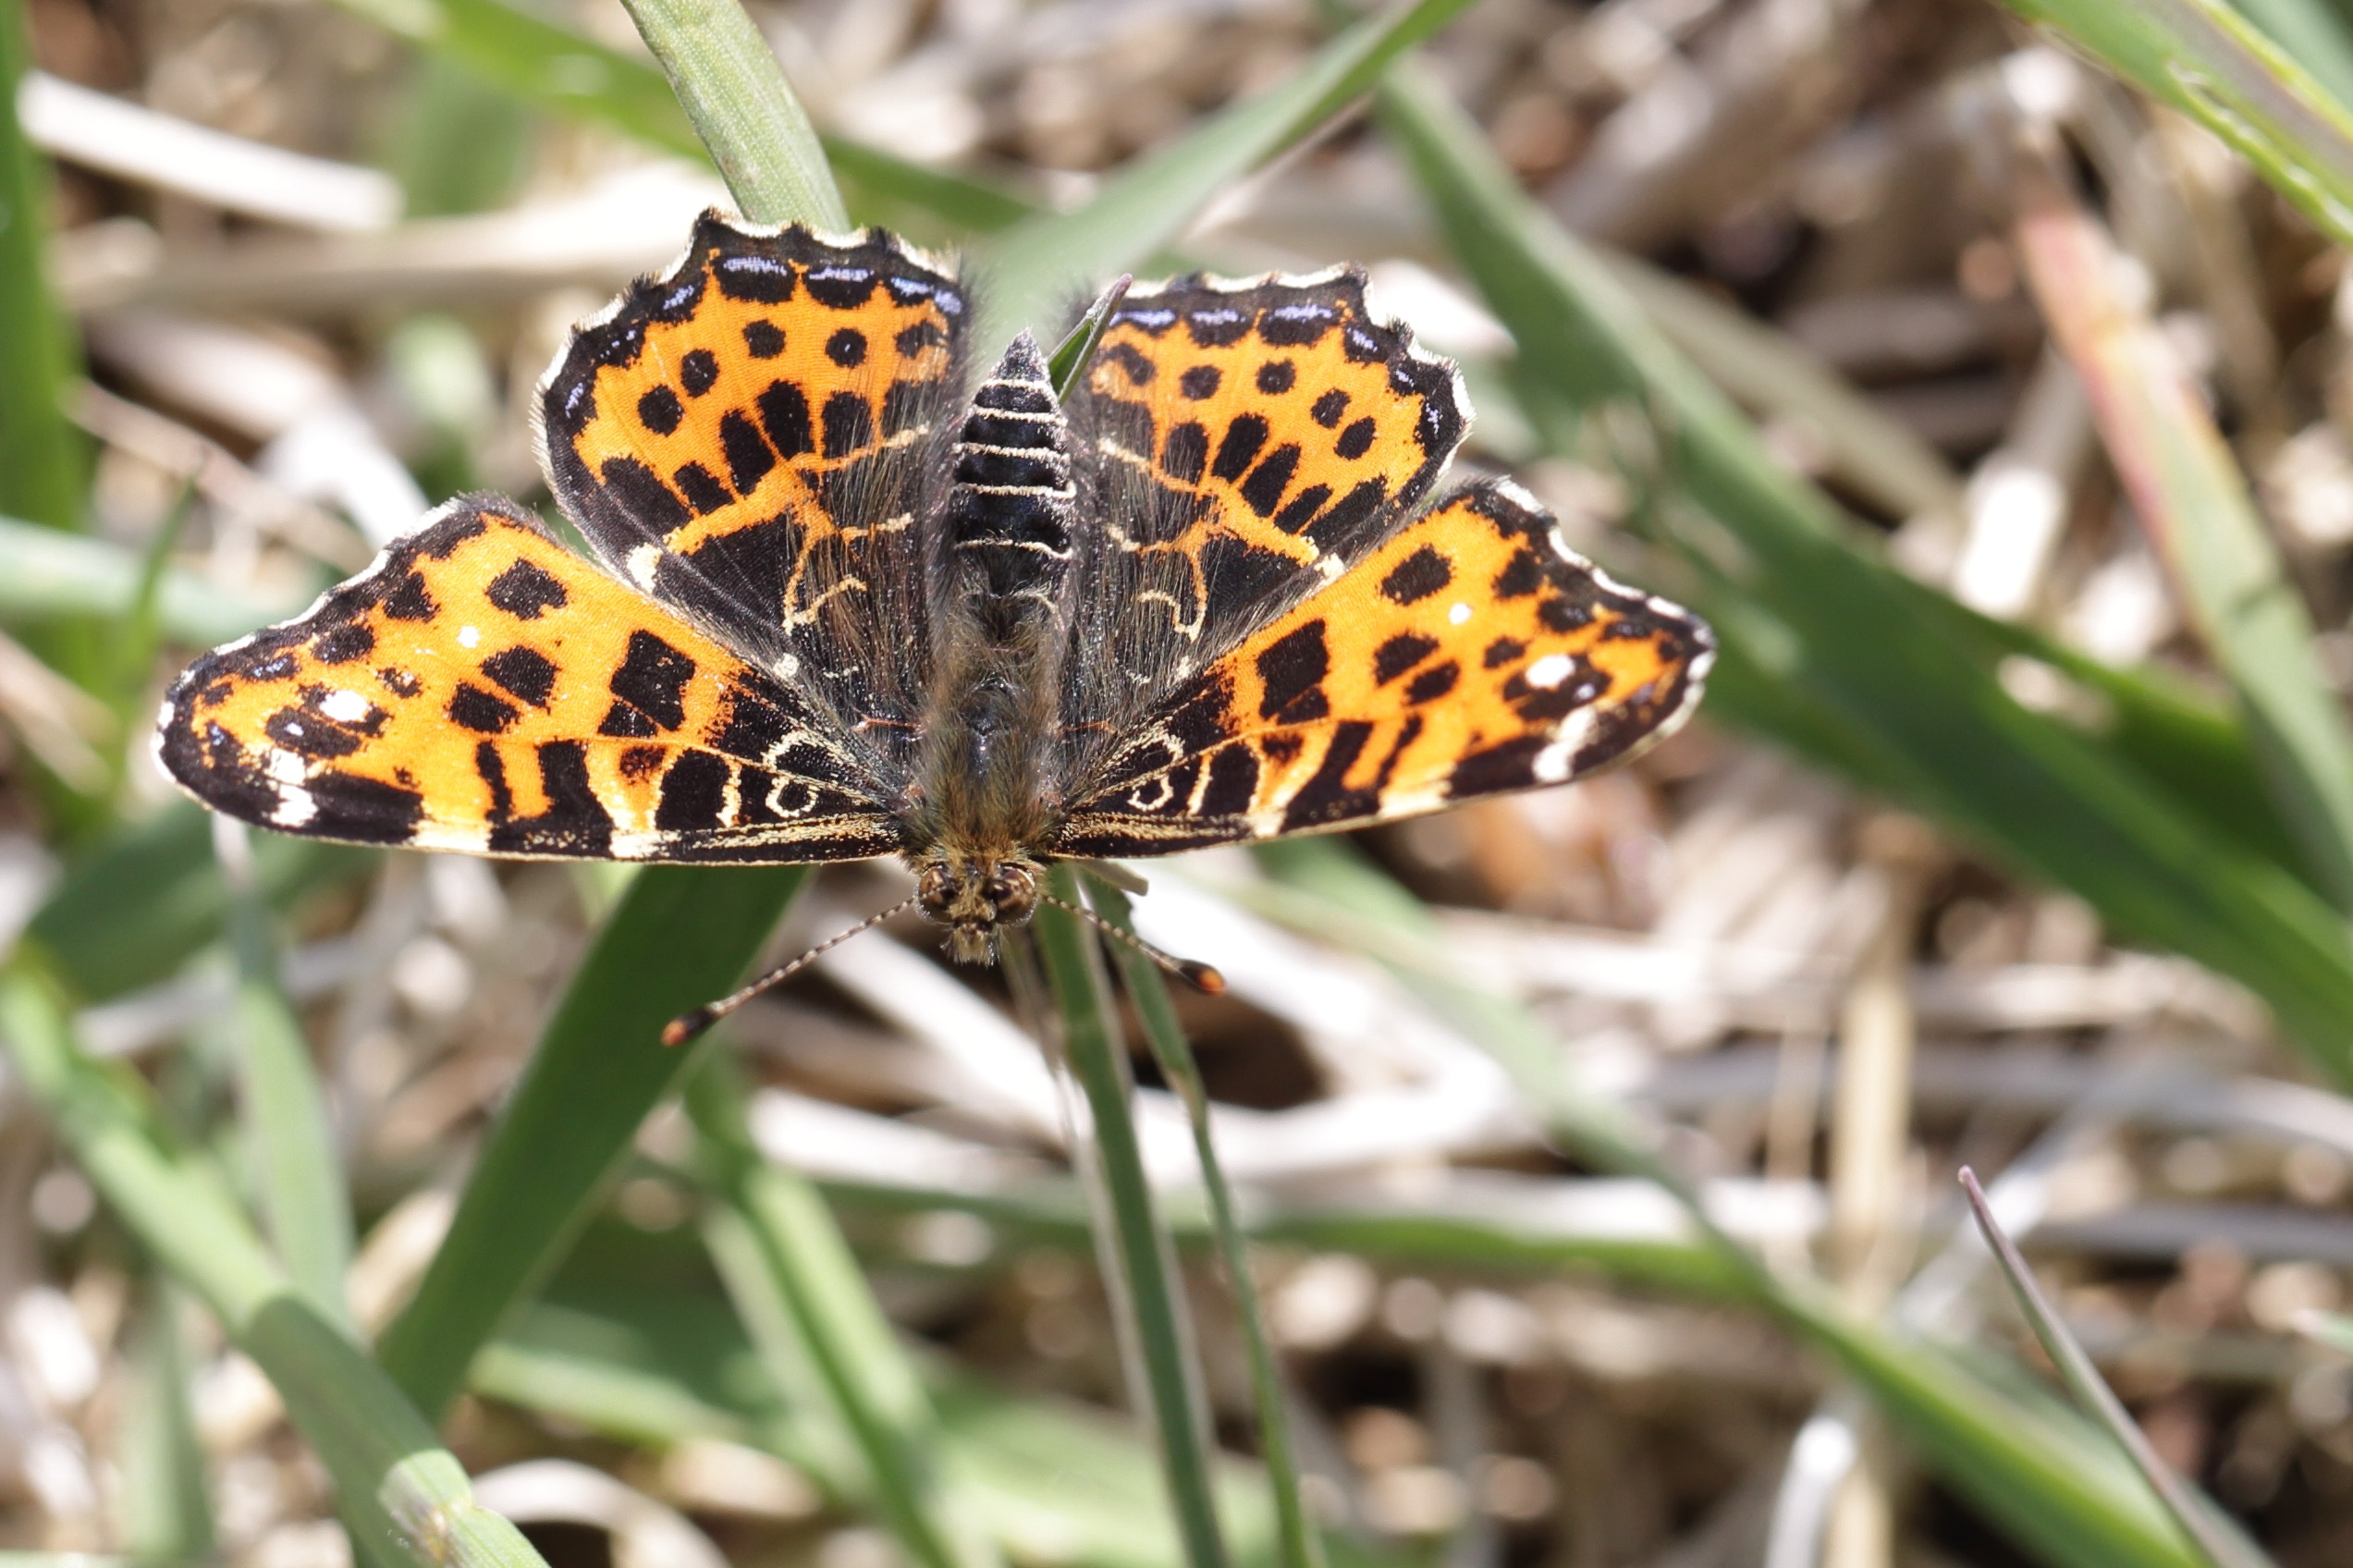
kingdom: Animalia
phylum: Arthropoda
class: Insecta
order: Lepidoptera
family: Nymphalidae
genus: Araschnia
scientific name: Araschnia levana
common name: Nældesommerfugl
